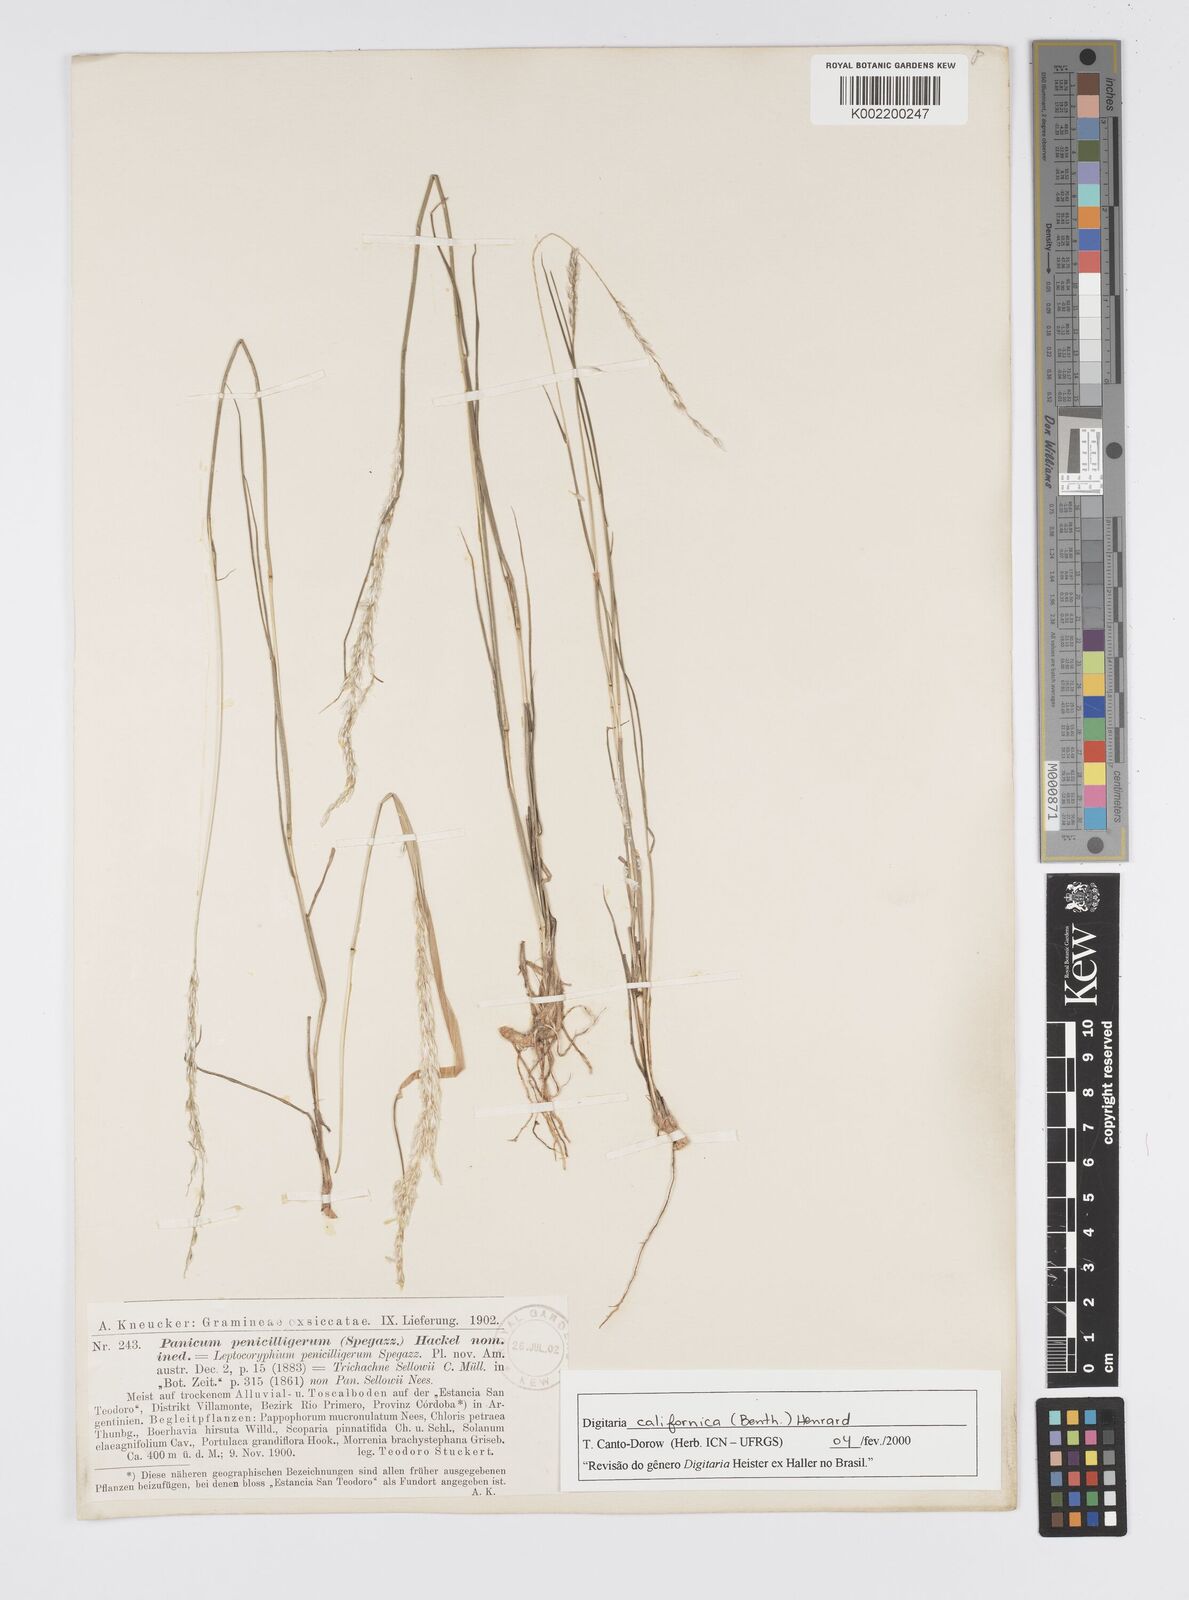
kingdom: Plantae
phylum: Tracheophyta
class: Liliopsida
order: Poales
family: Poaceae
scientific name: Poaceae
